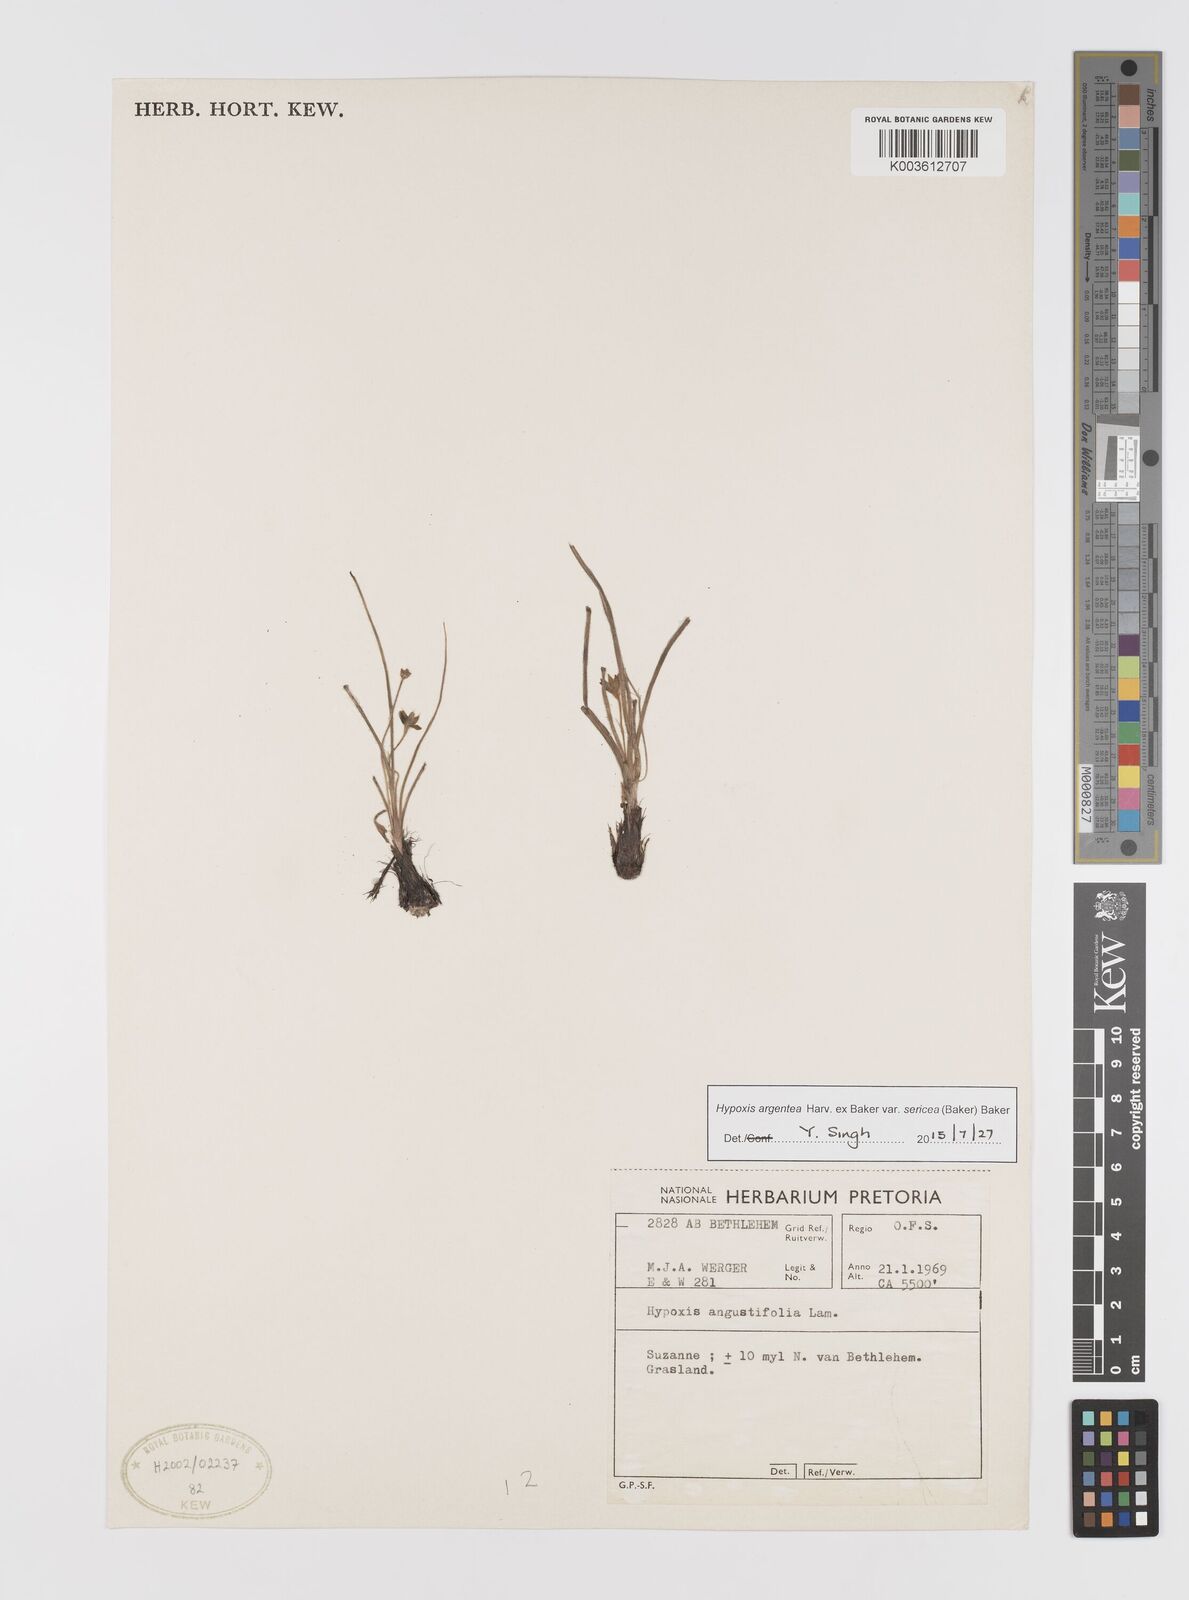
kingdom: Plantae
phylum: Tracheophyta
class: Liliopsida
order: Asparagales
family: Hypoxidaceae
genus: Hypoxis
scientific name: Hypoxis argentea
